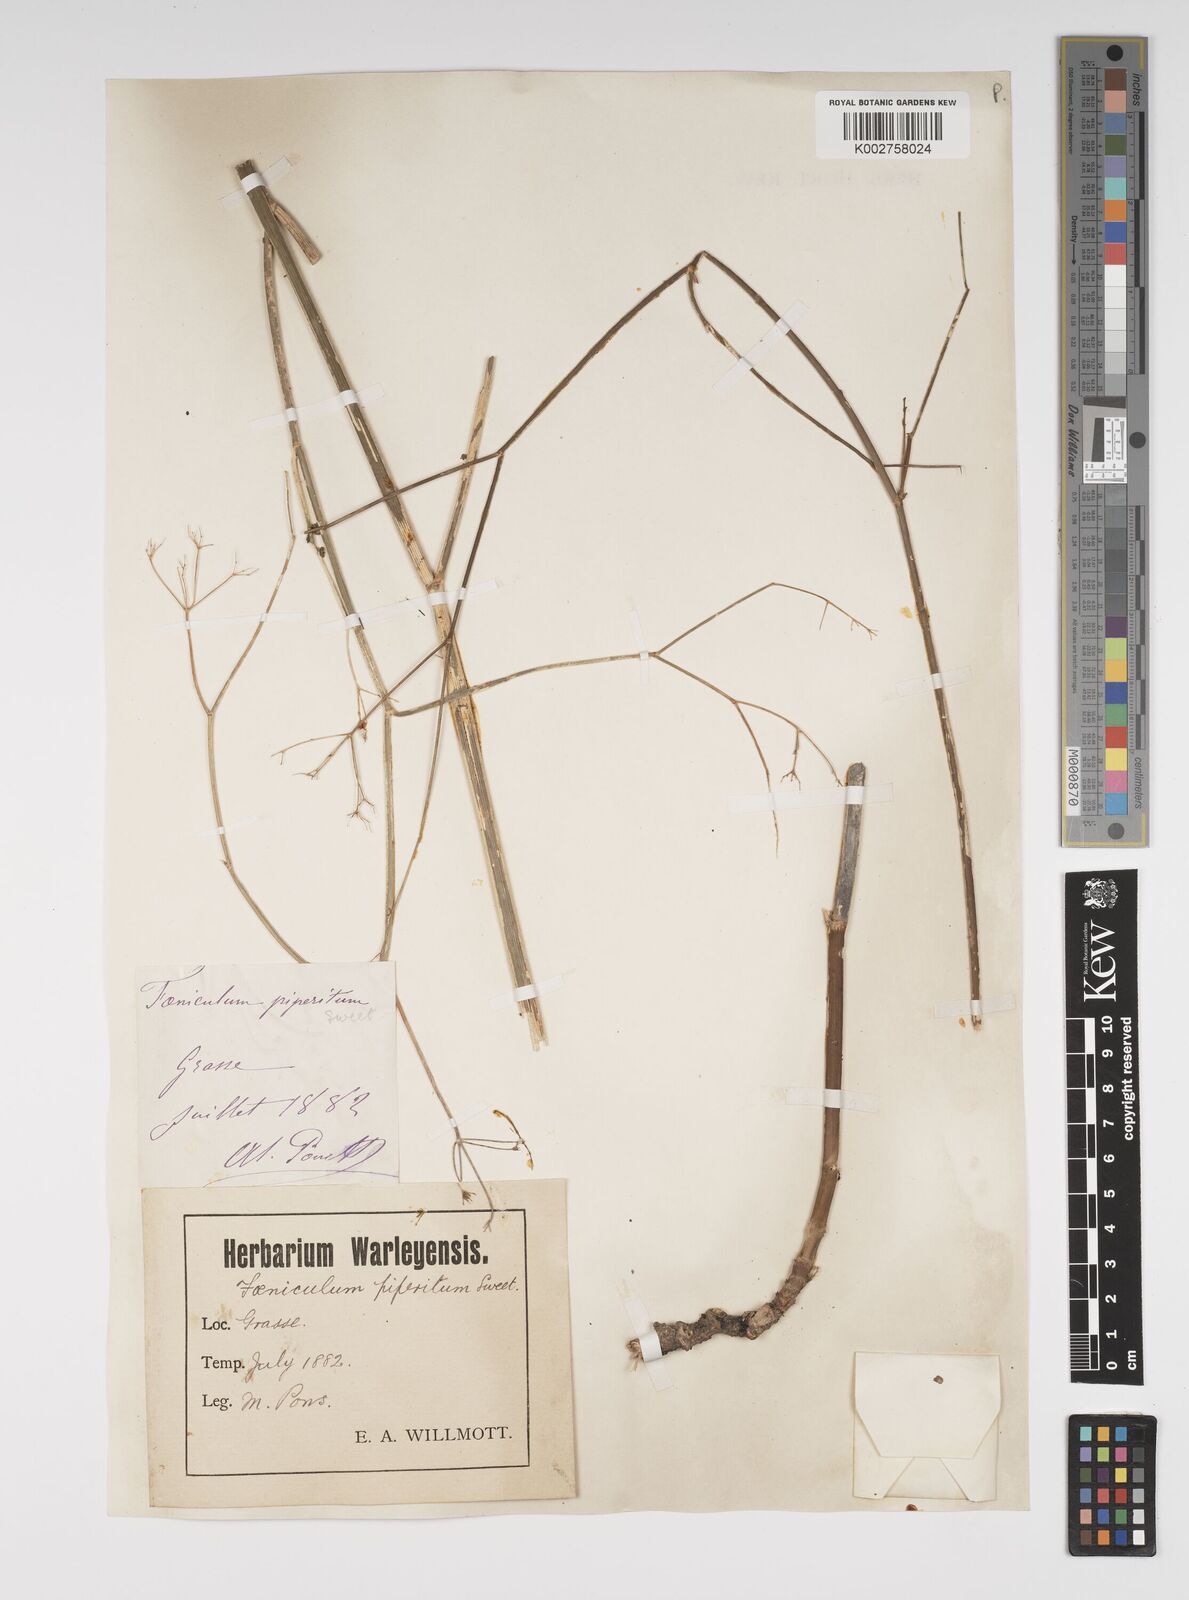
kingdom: Plantae
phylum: Tracheophyta
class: Magnoliopsida
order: Apiales
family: Apiaceae
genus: Foeniculum
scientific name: Foeniculum vulgare
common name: Fennel
